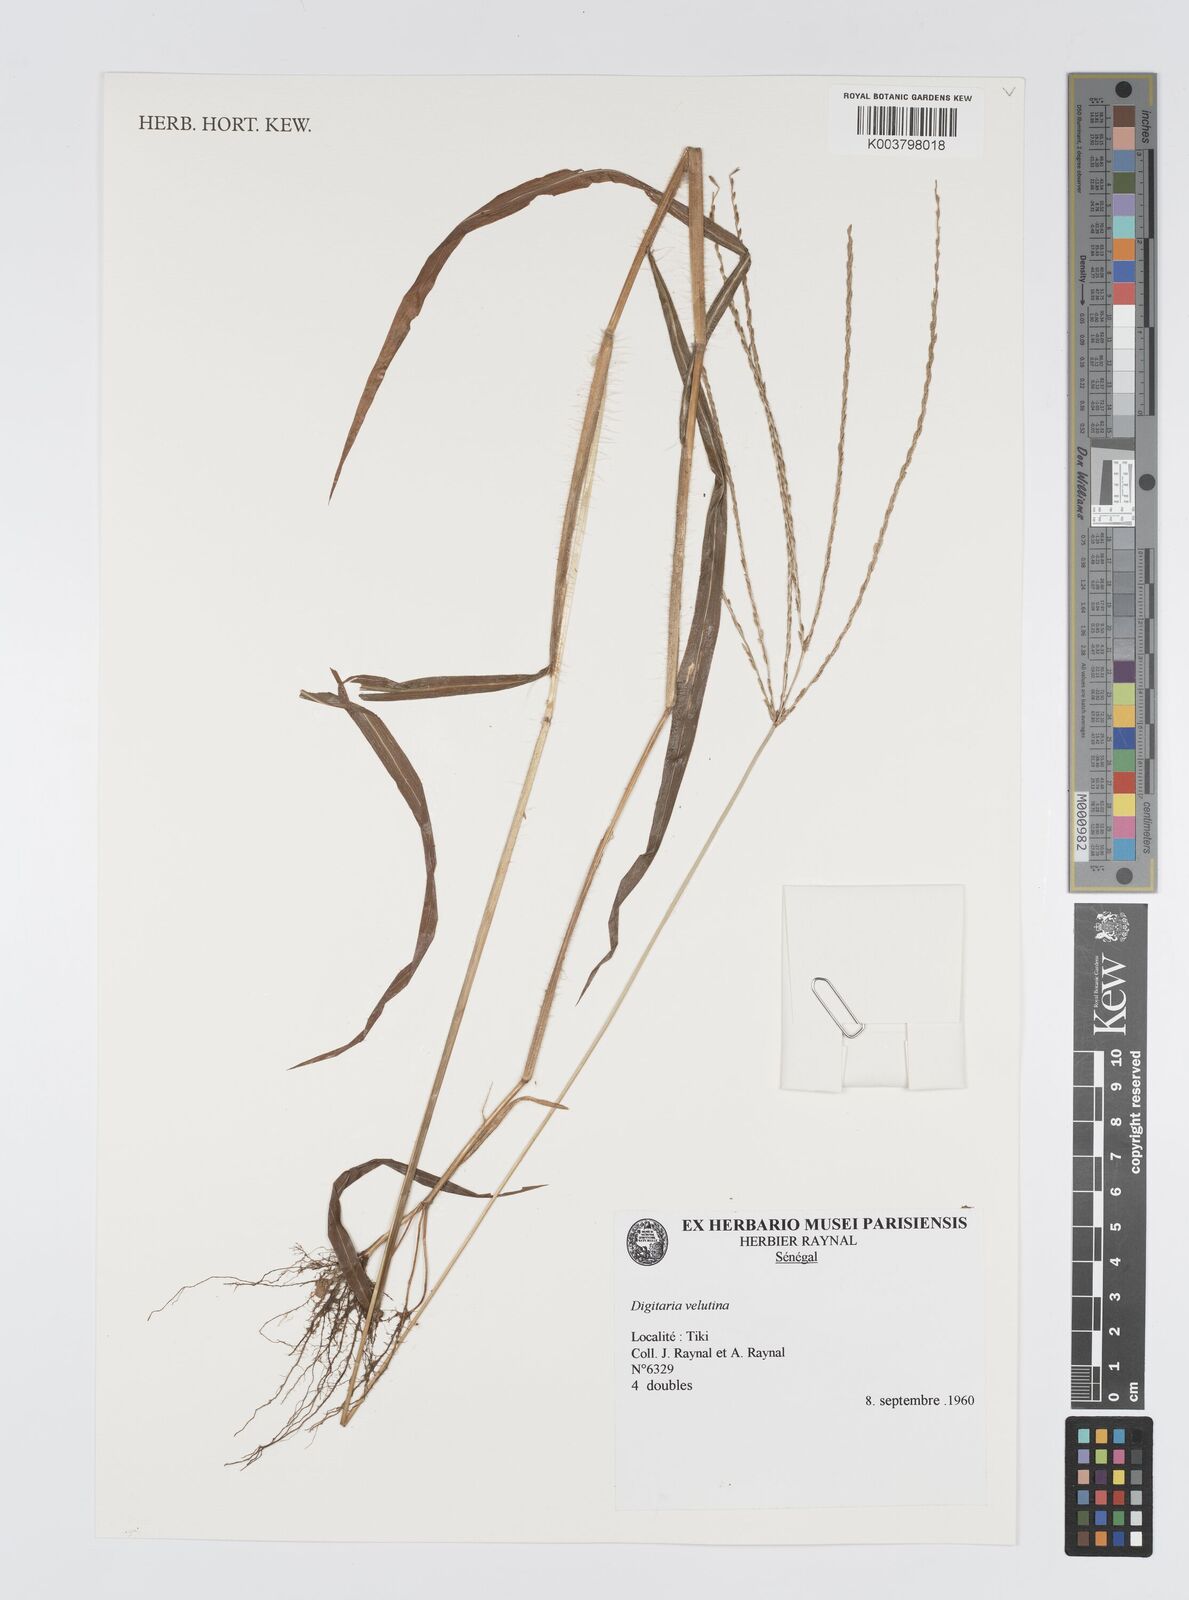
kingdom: Plantae
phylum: Tracheophyta
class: Liliopsida
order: Poales
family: Poaceae
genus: Digitaria
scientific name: Digitaria leucites
